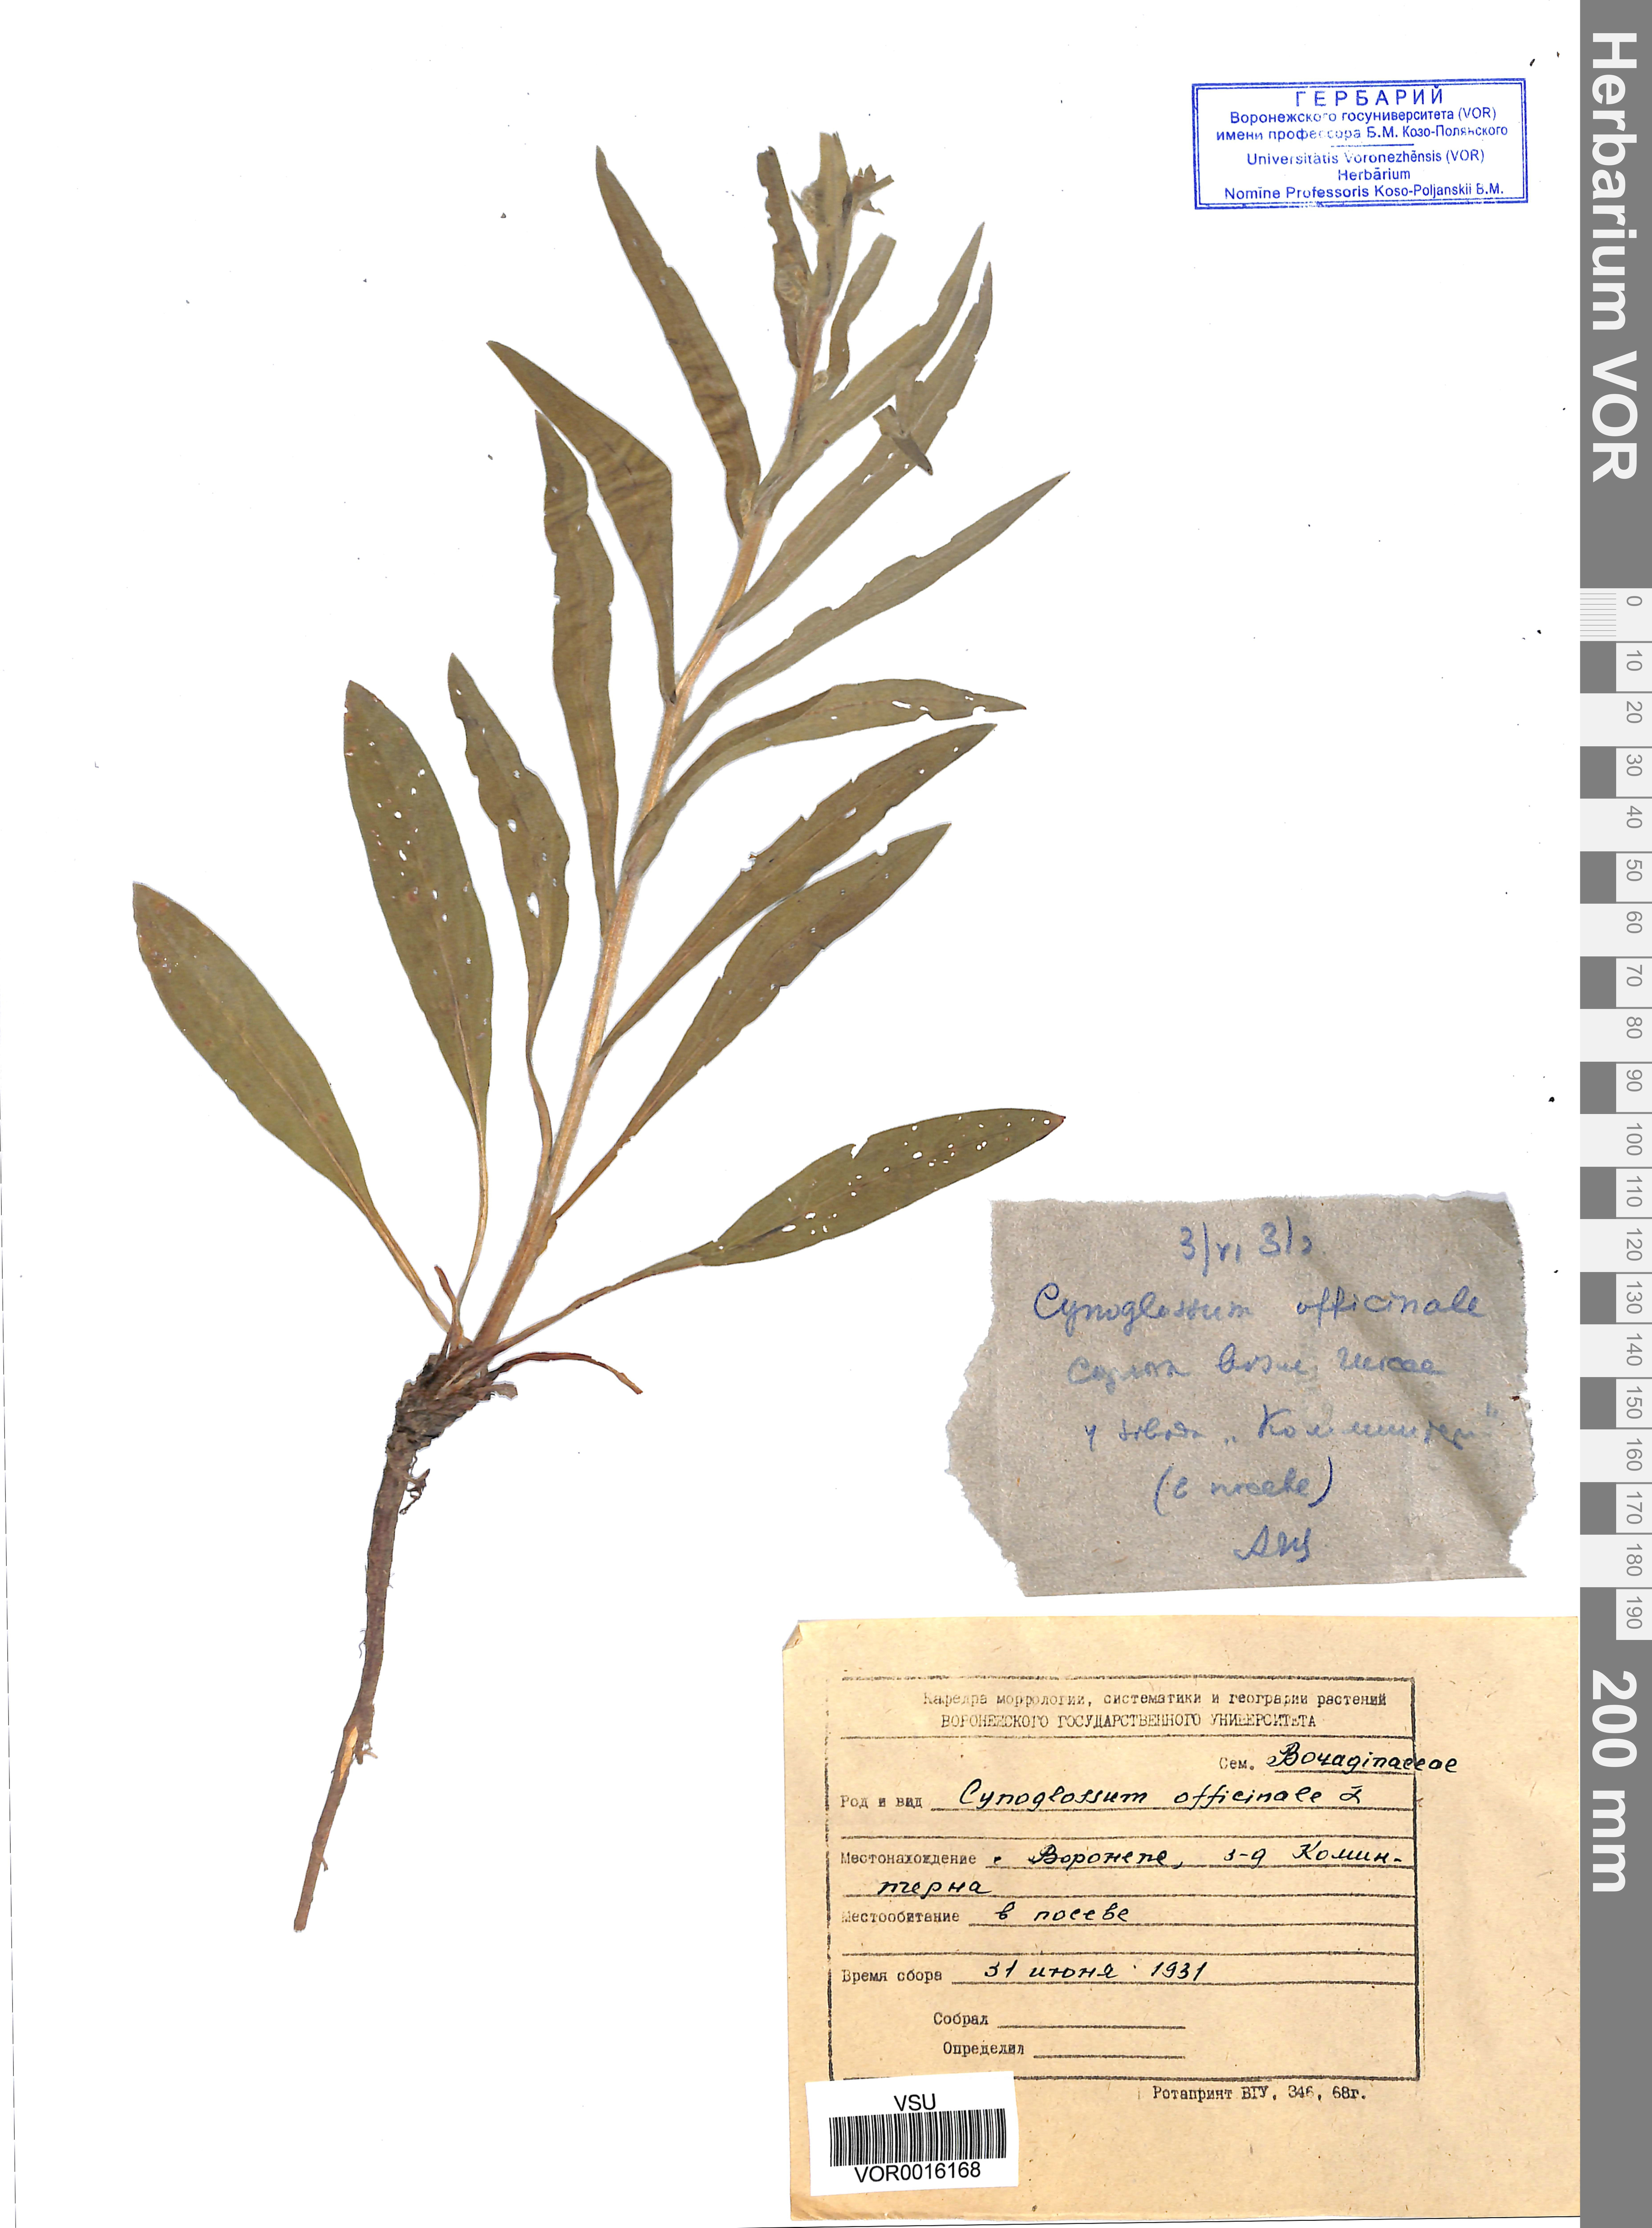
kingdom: Plantae
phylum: Tracheophyta
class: Magnoliopsida
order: Boraginales
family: Boraginaceae
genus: Cynoglossum
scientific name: Cynoglossum officinale
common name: Hound's-tongue
